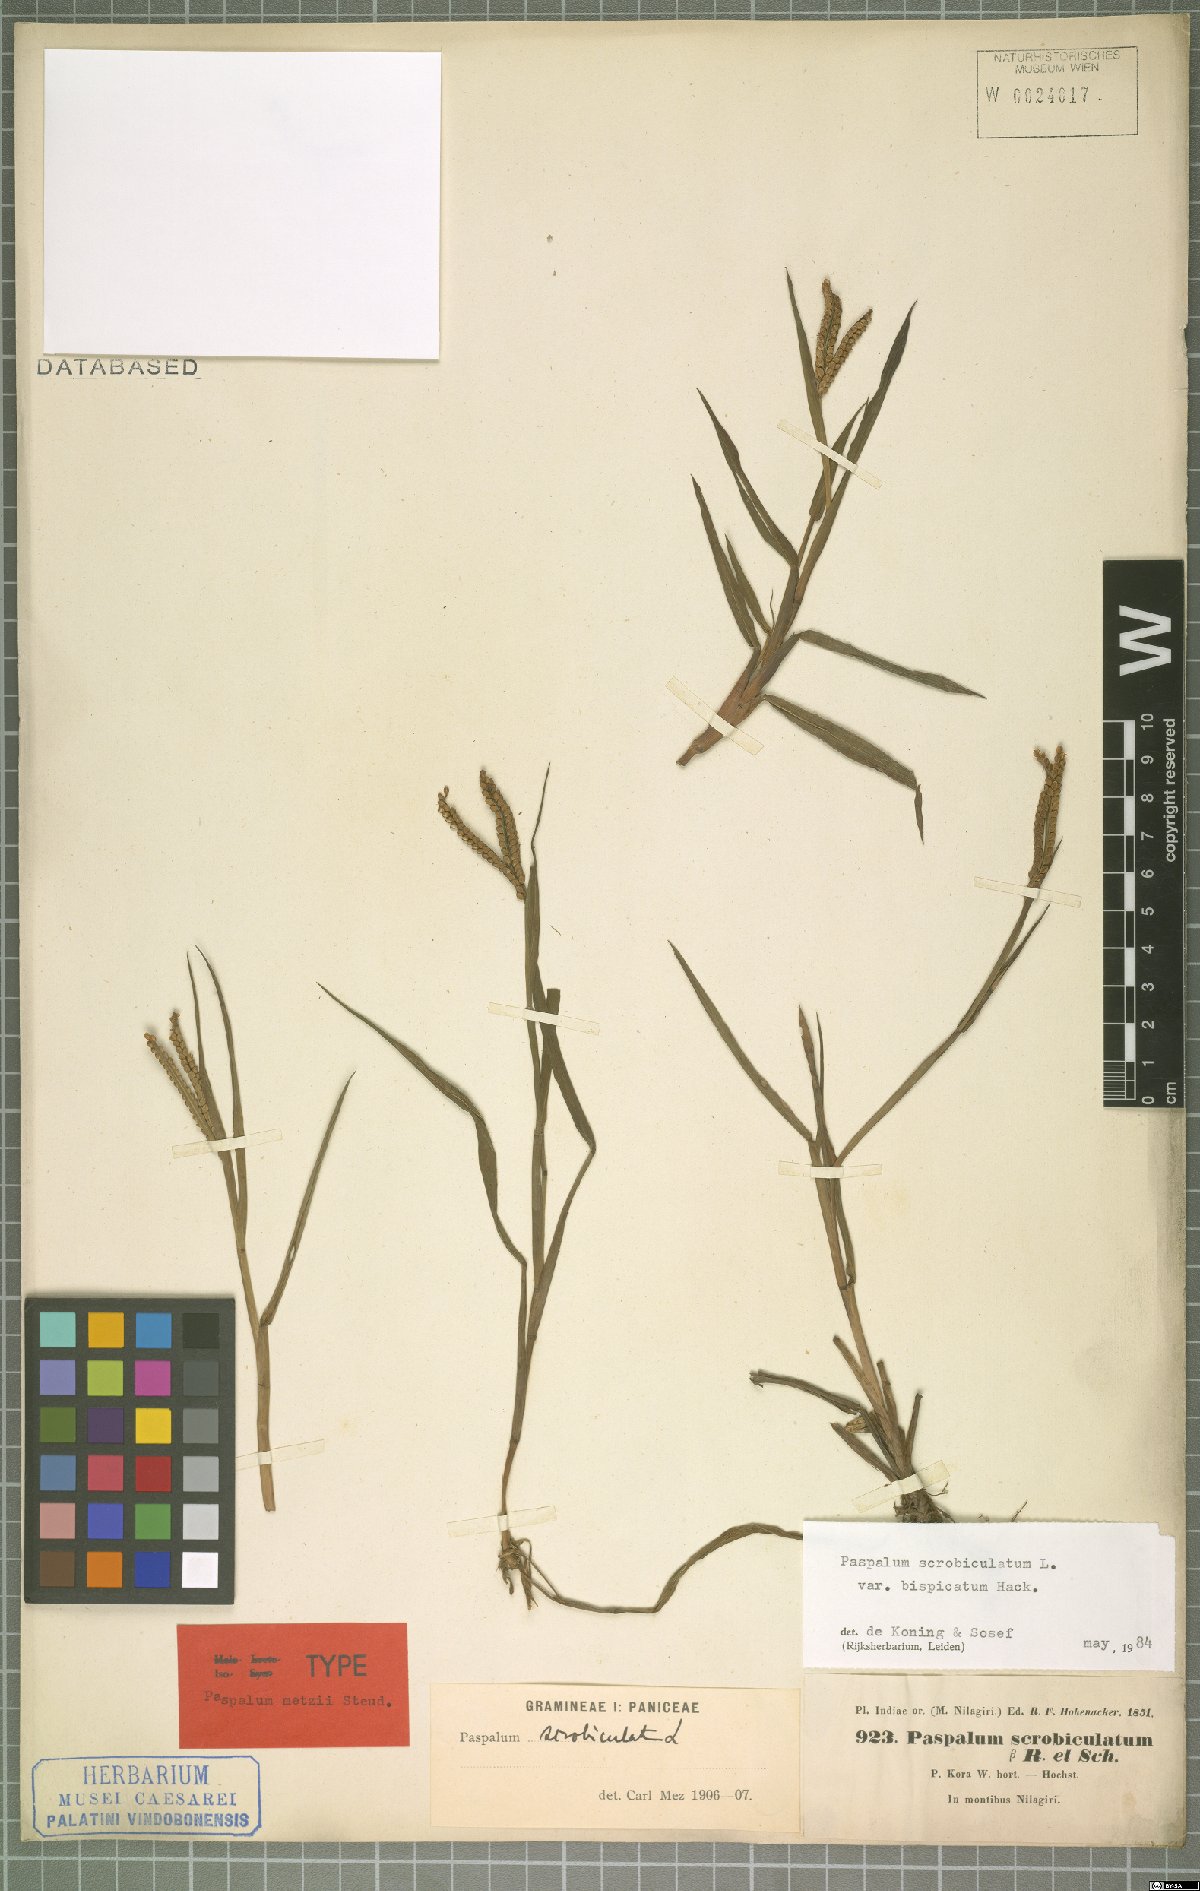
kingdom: Plantae
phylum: Tracheophyta
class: Liliopsida
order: Poales
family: Poaceae
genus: Paspalum
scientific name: Paspalum scrobiculatum
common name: Kodo millet
